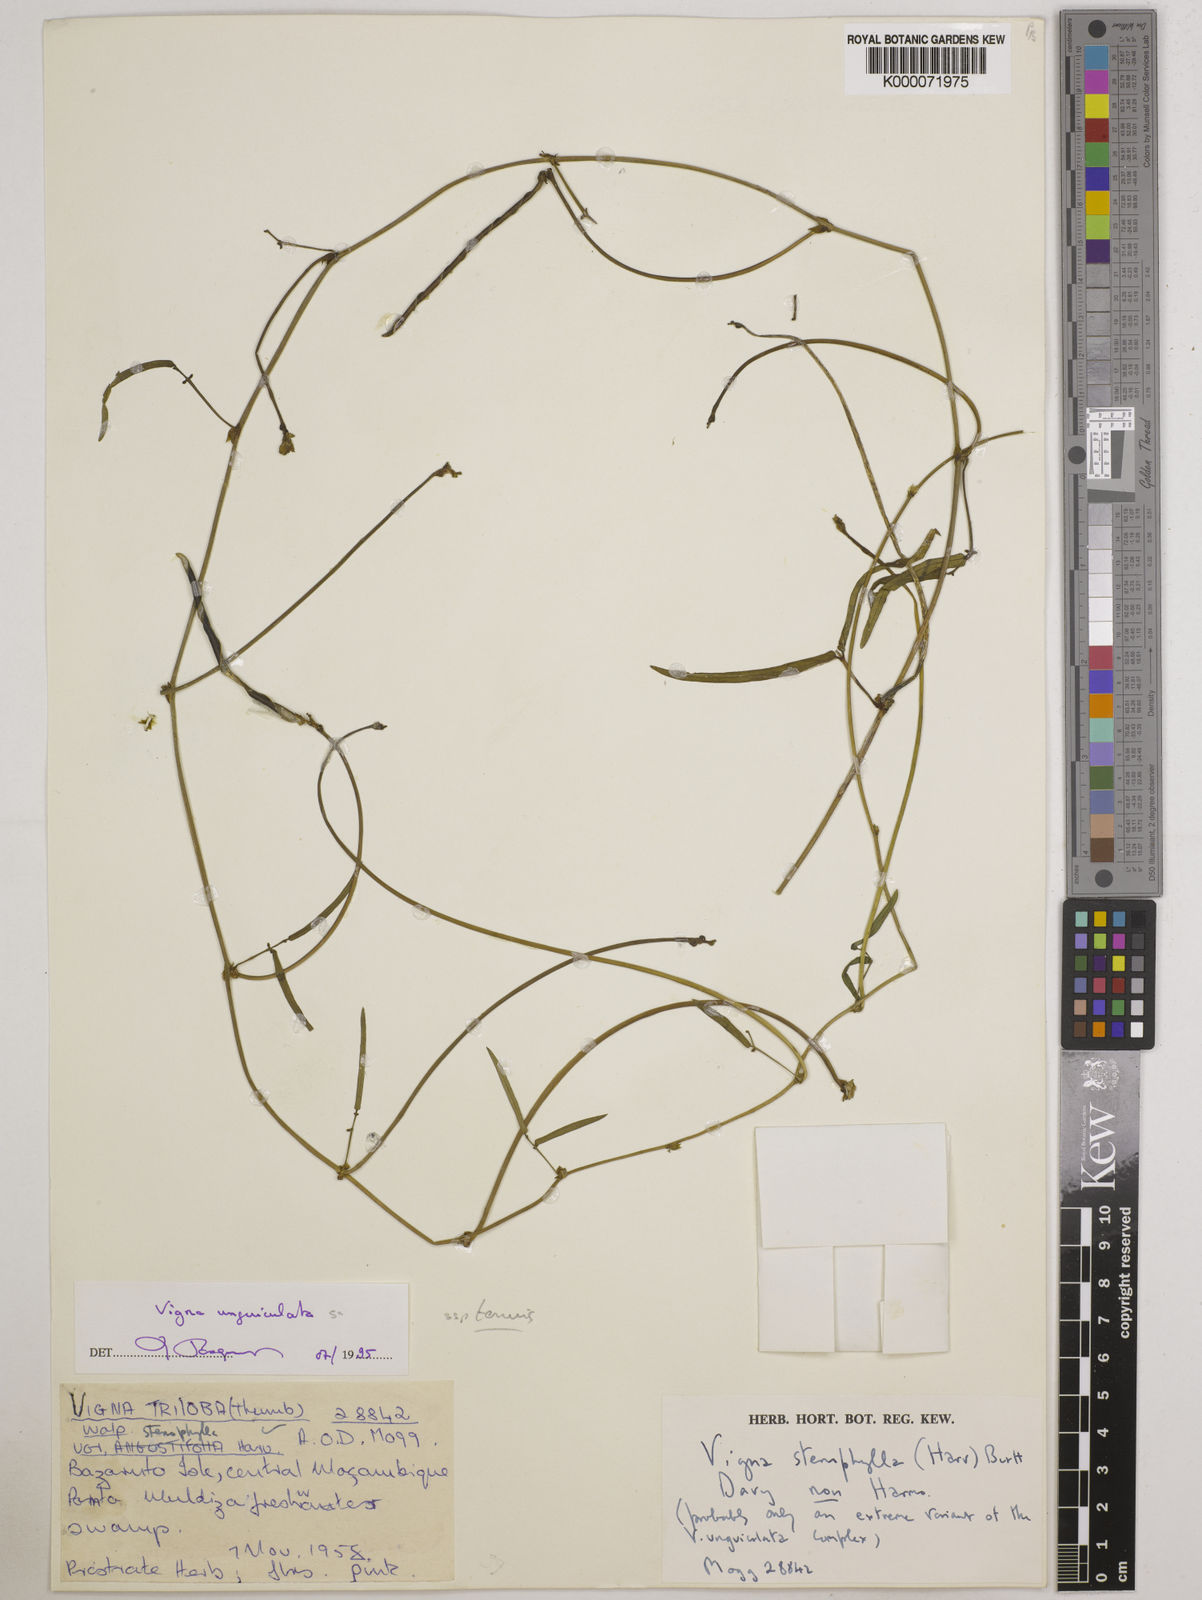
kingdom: Plantae
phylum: Tracheophyta
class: Magnoliopsida
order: Fabales
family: Fabaceae
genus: Vigna
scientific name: Vigna unguiculata
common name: Cowpea
